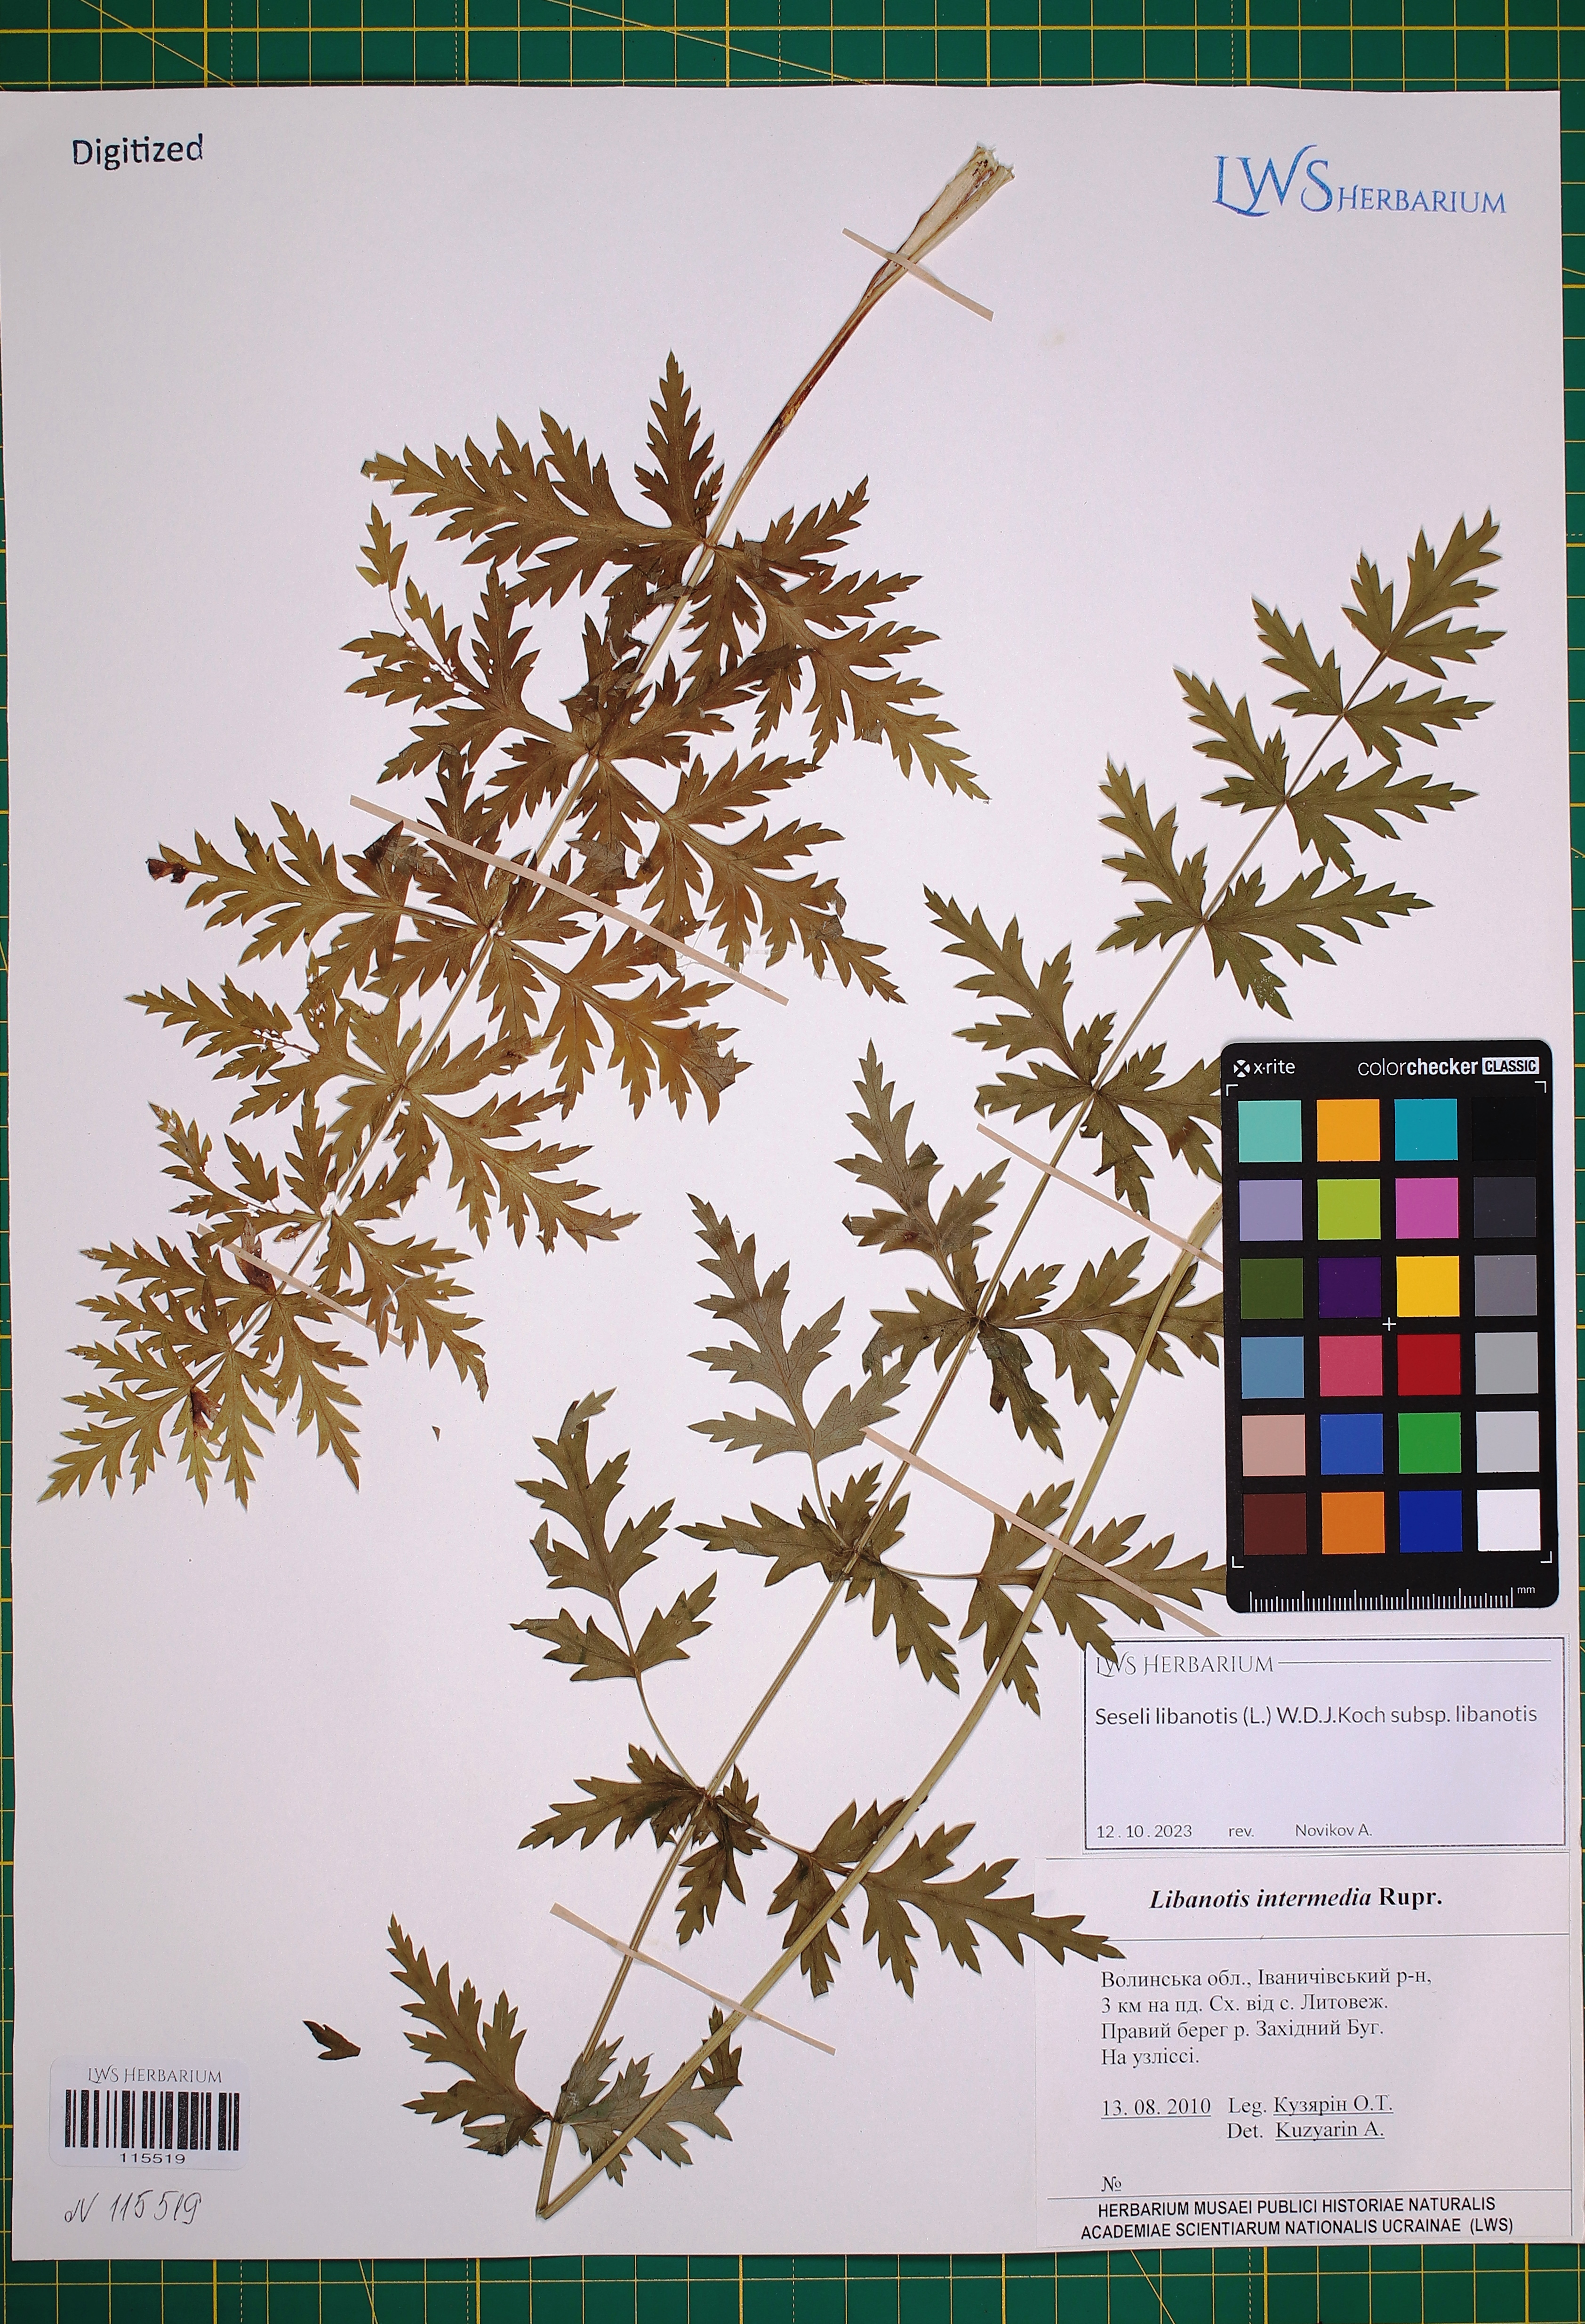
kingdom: Plantae
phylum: Tracheophyta
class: Magnoliopsida
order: Apiales
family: Apiaceae
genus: Seseli
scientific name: Seseli libanotis
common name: Mooncarrot
